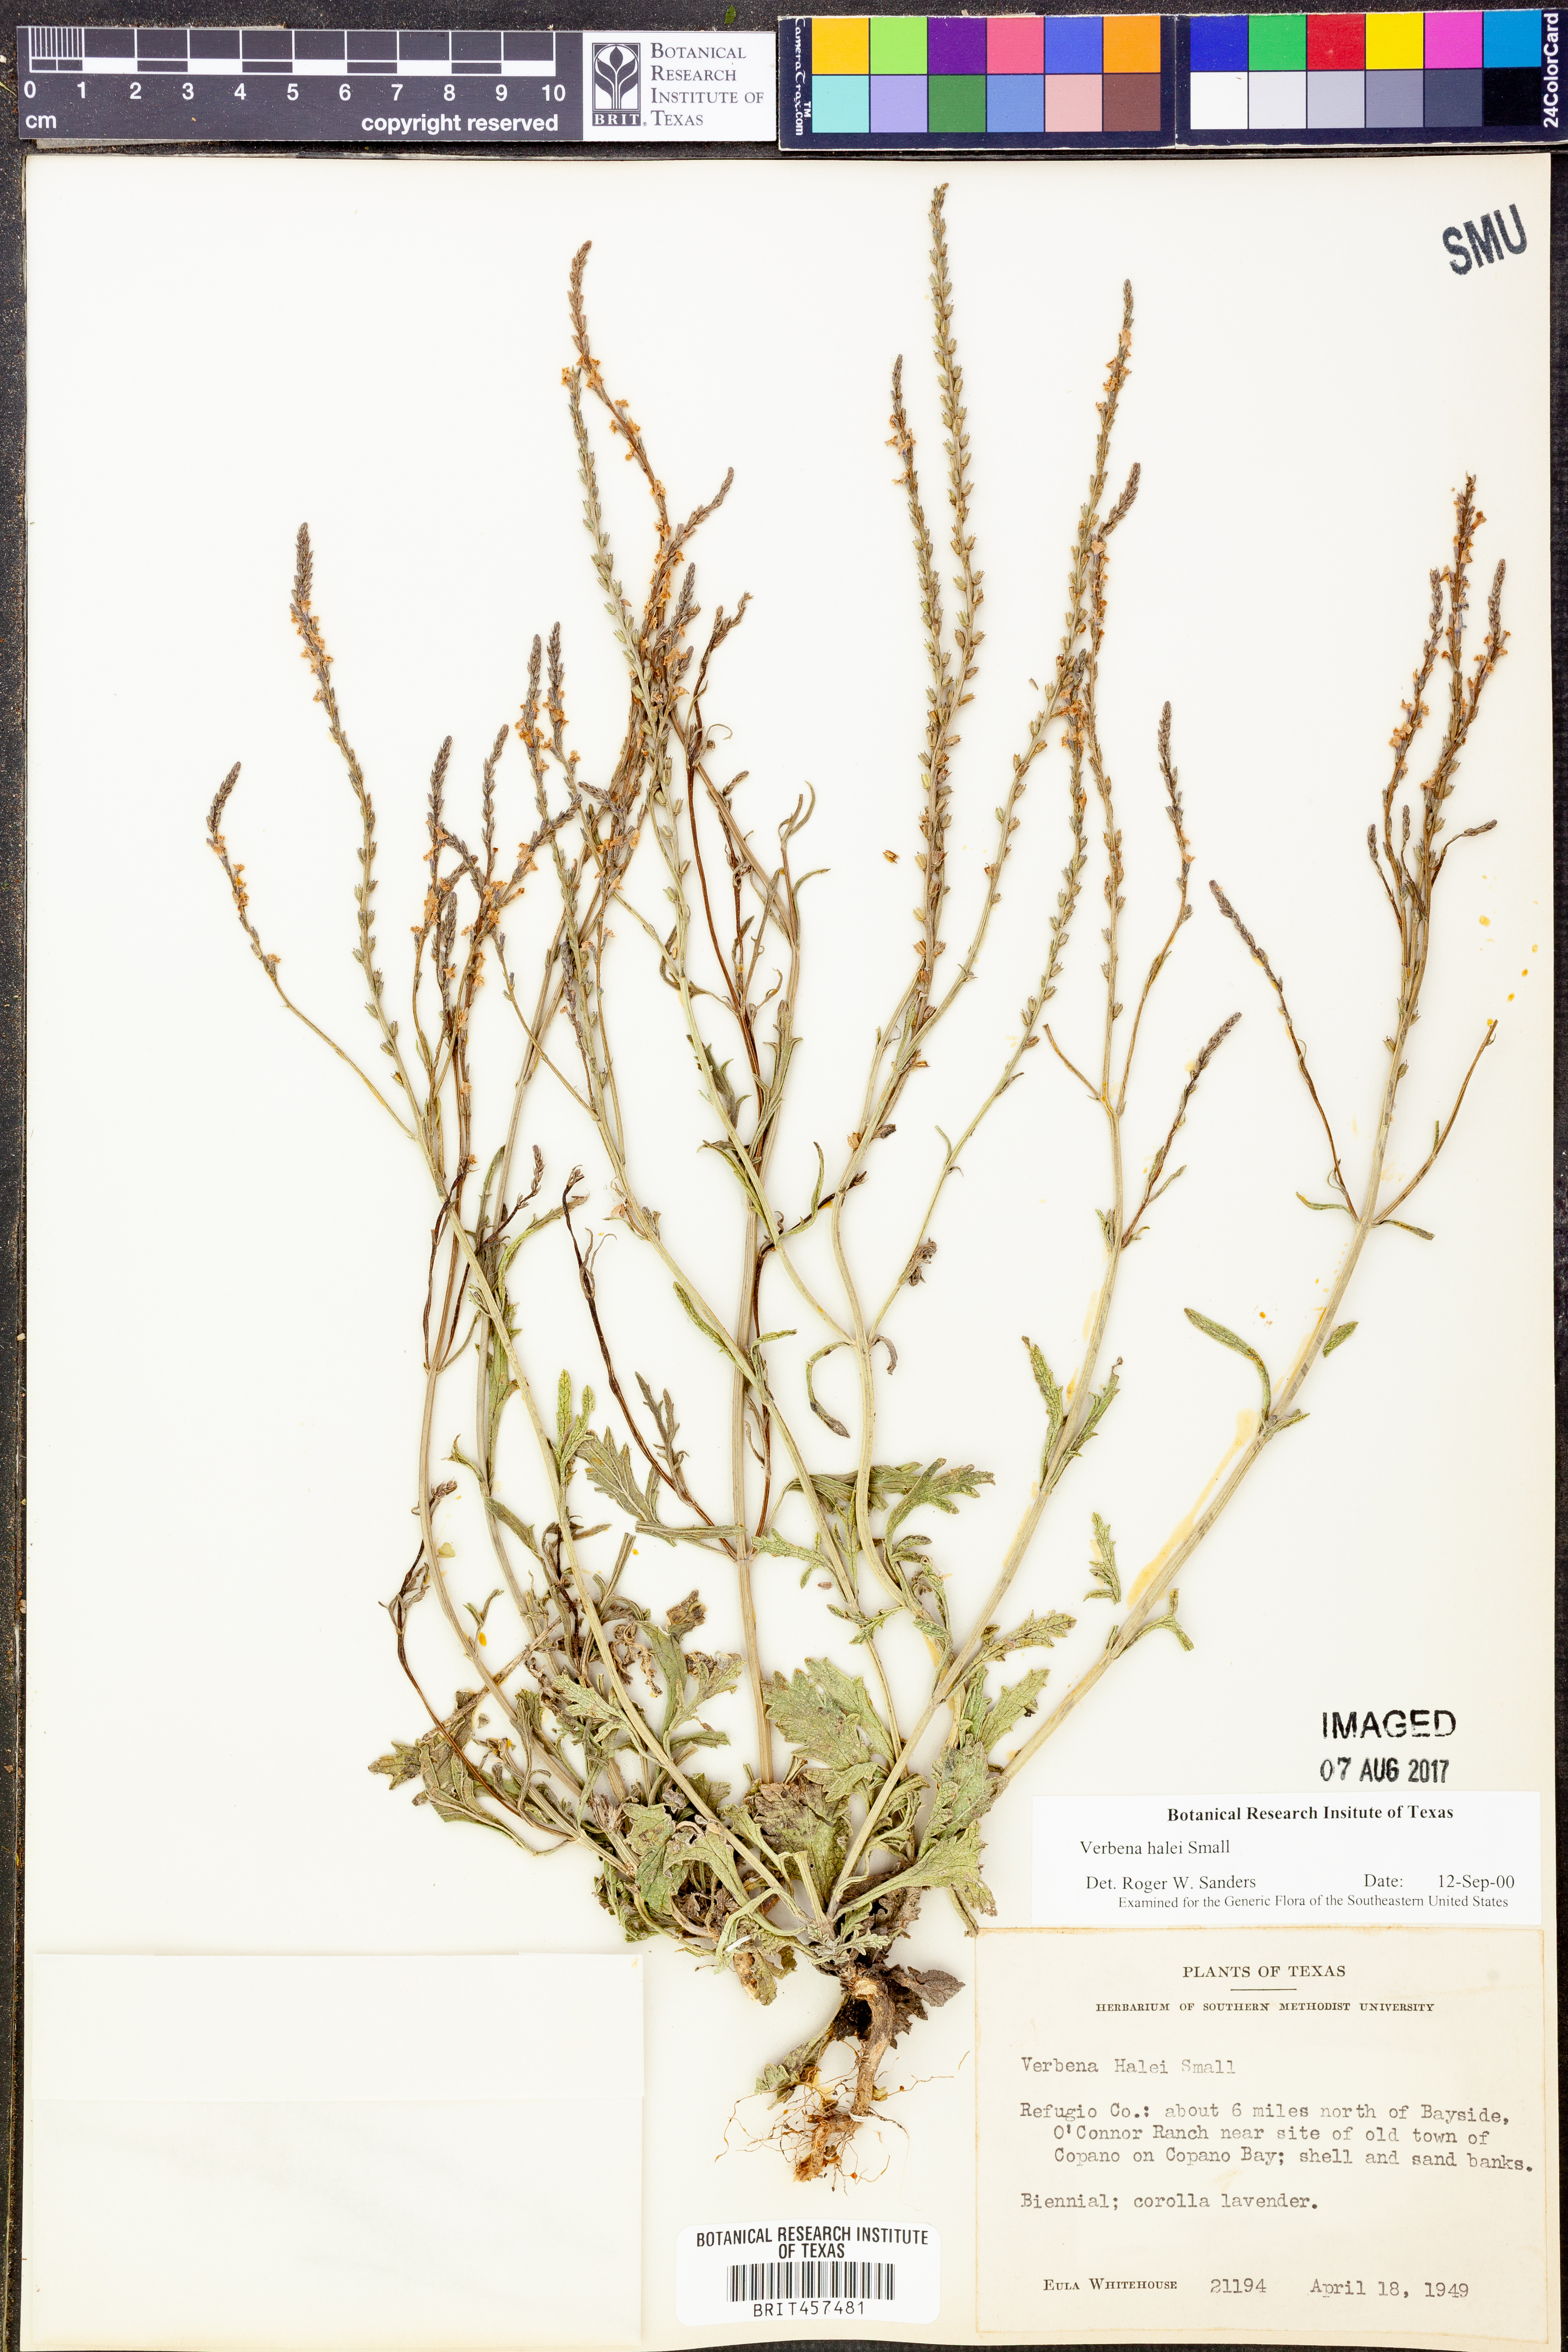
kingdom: Plantae
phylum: Tracheophyta
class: Magnoliopsida
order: Lamiales
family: Verbenaceae
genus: Verbena
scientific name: Verbena halei
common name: Texas vervain
